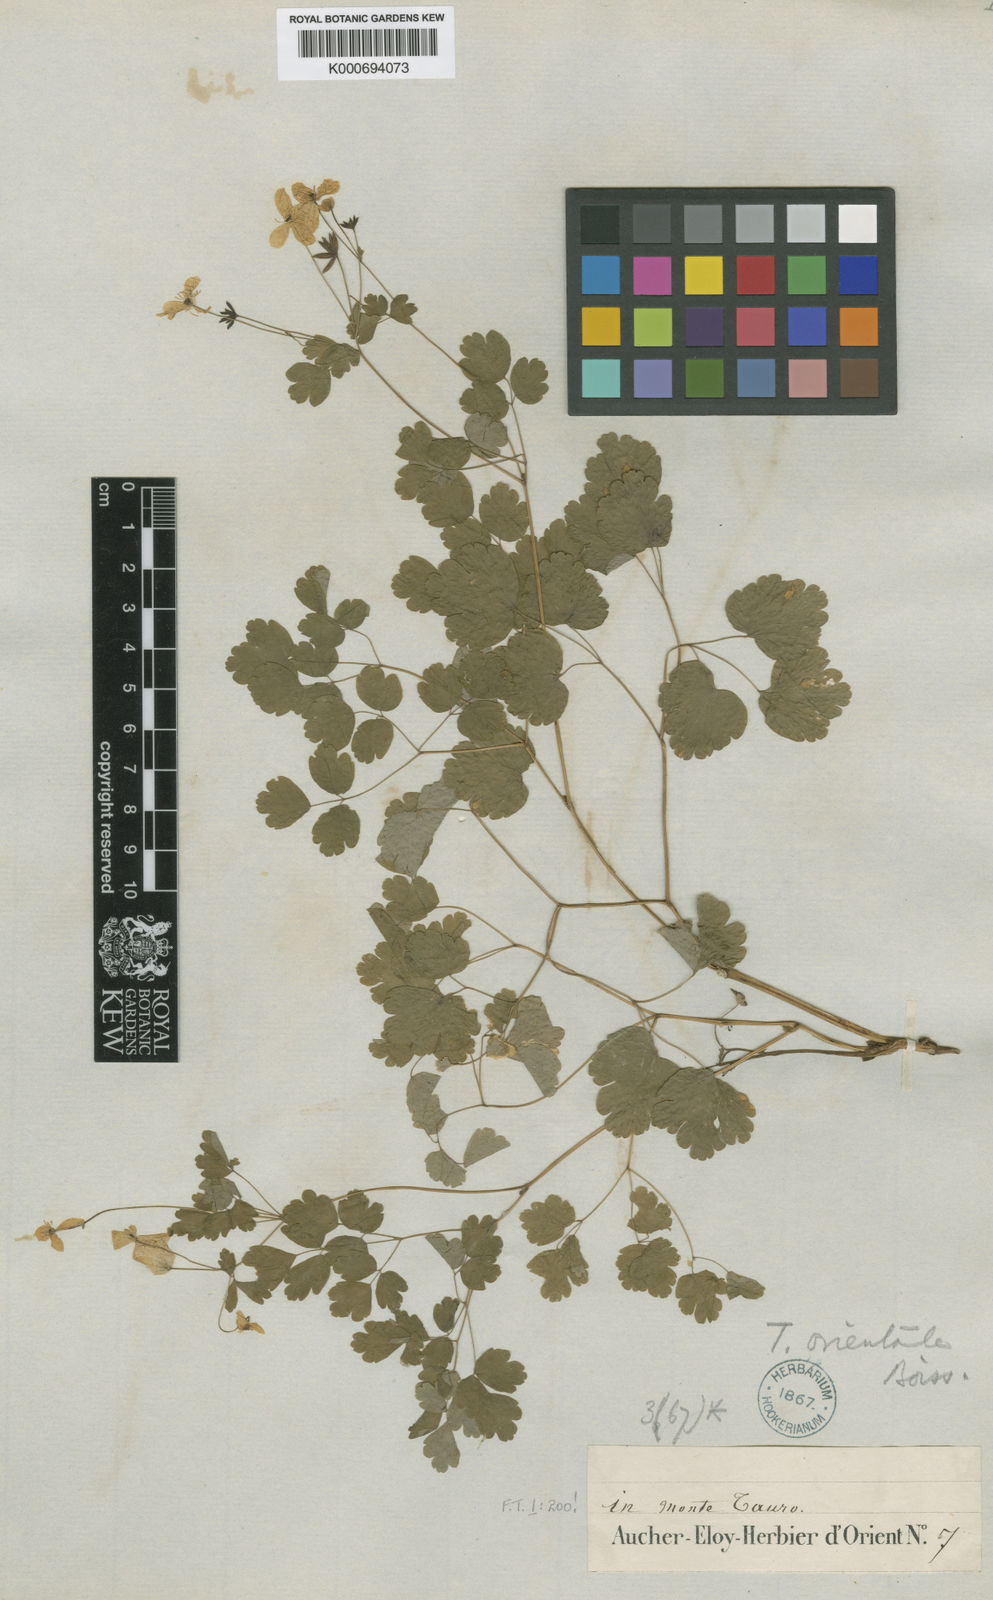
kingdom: Plantae
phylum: Tracheophyta
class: Magnoliopsida
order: Ranunculales
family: Ranunculaceae
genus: Thalictrum
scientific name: Thalictrum orientale
